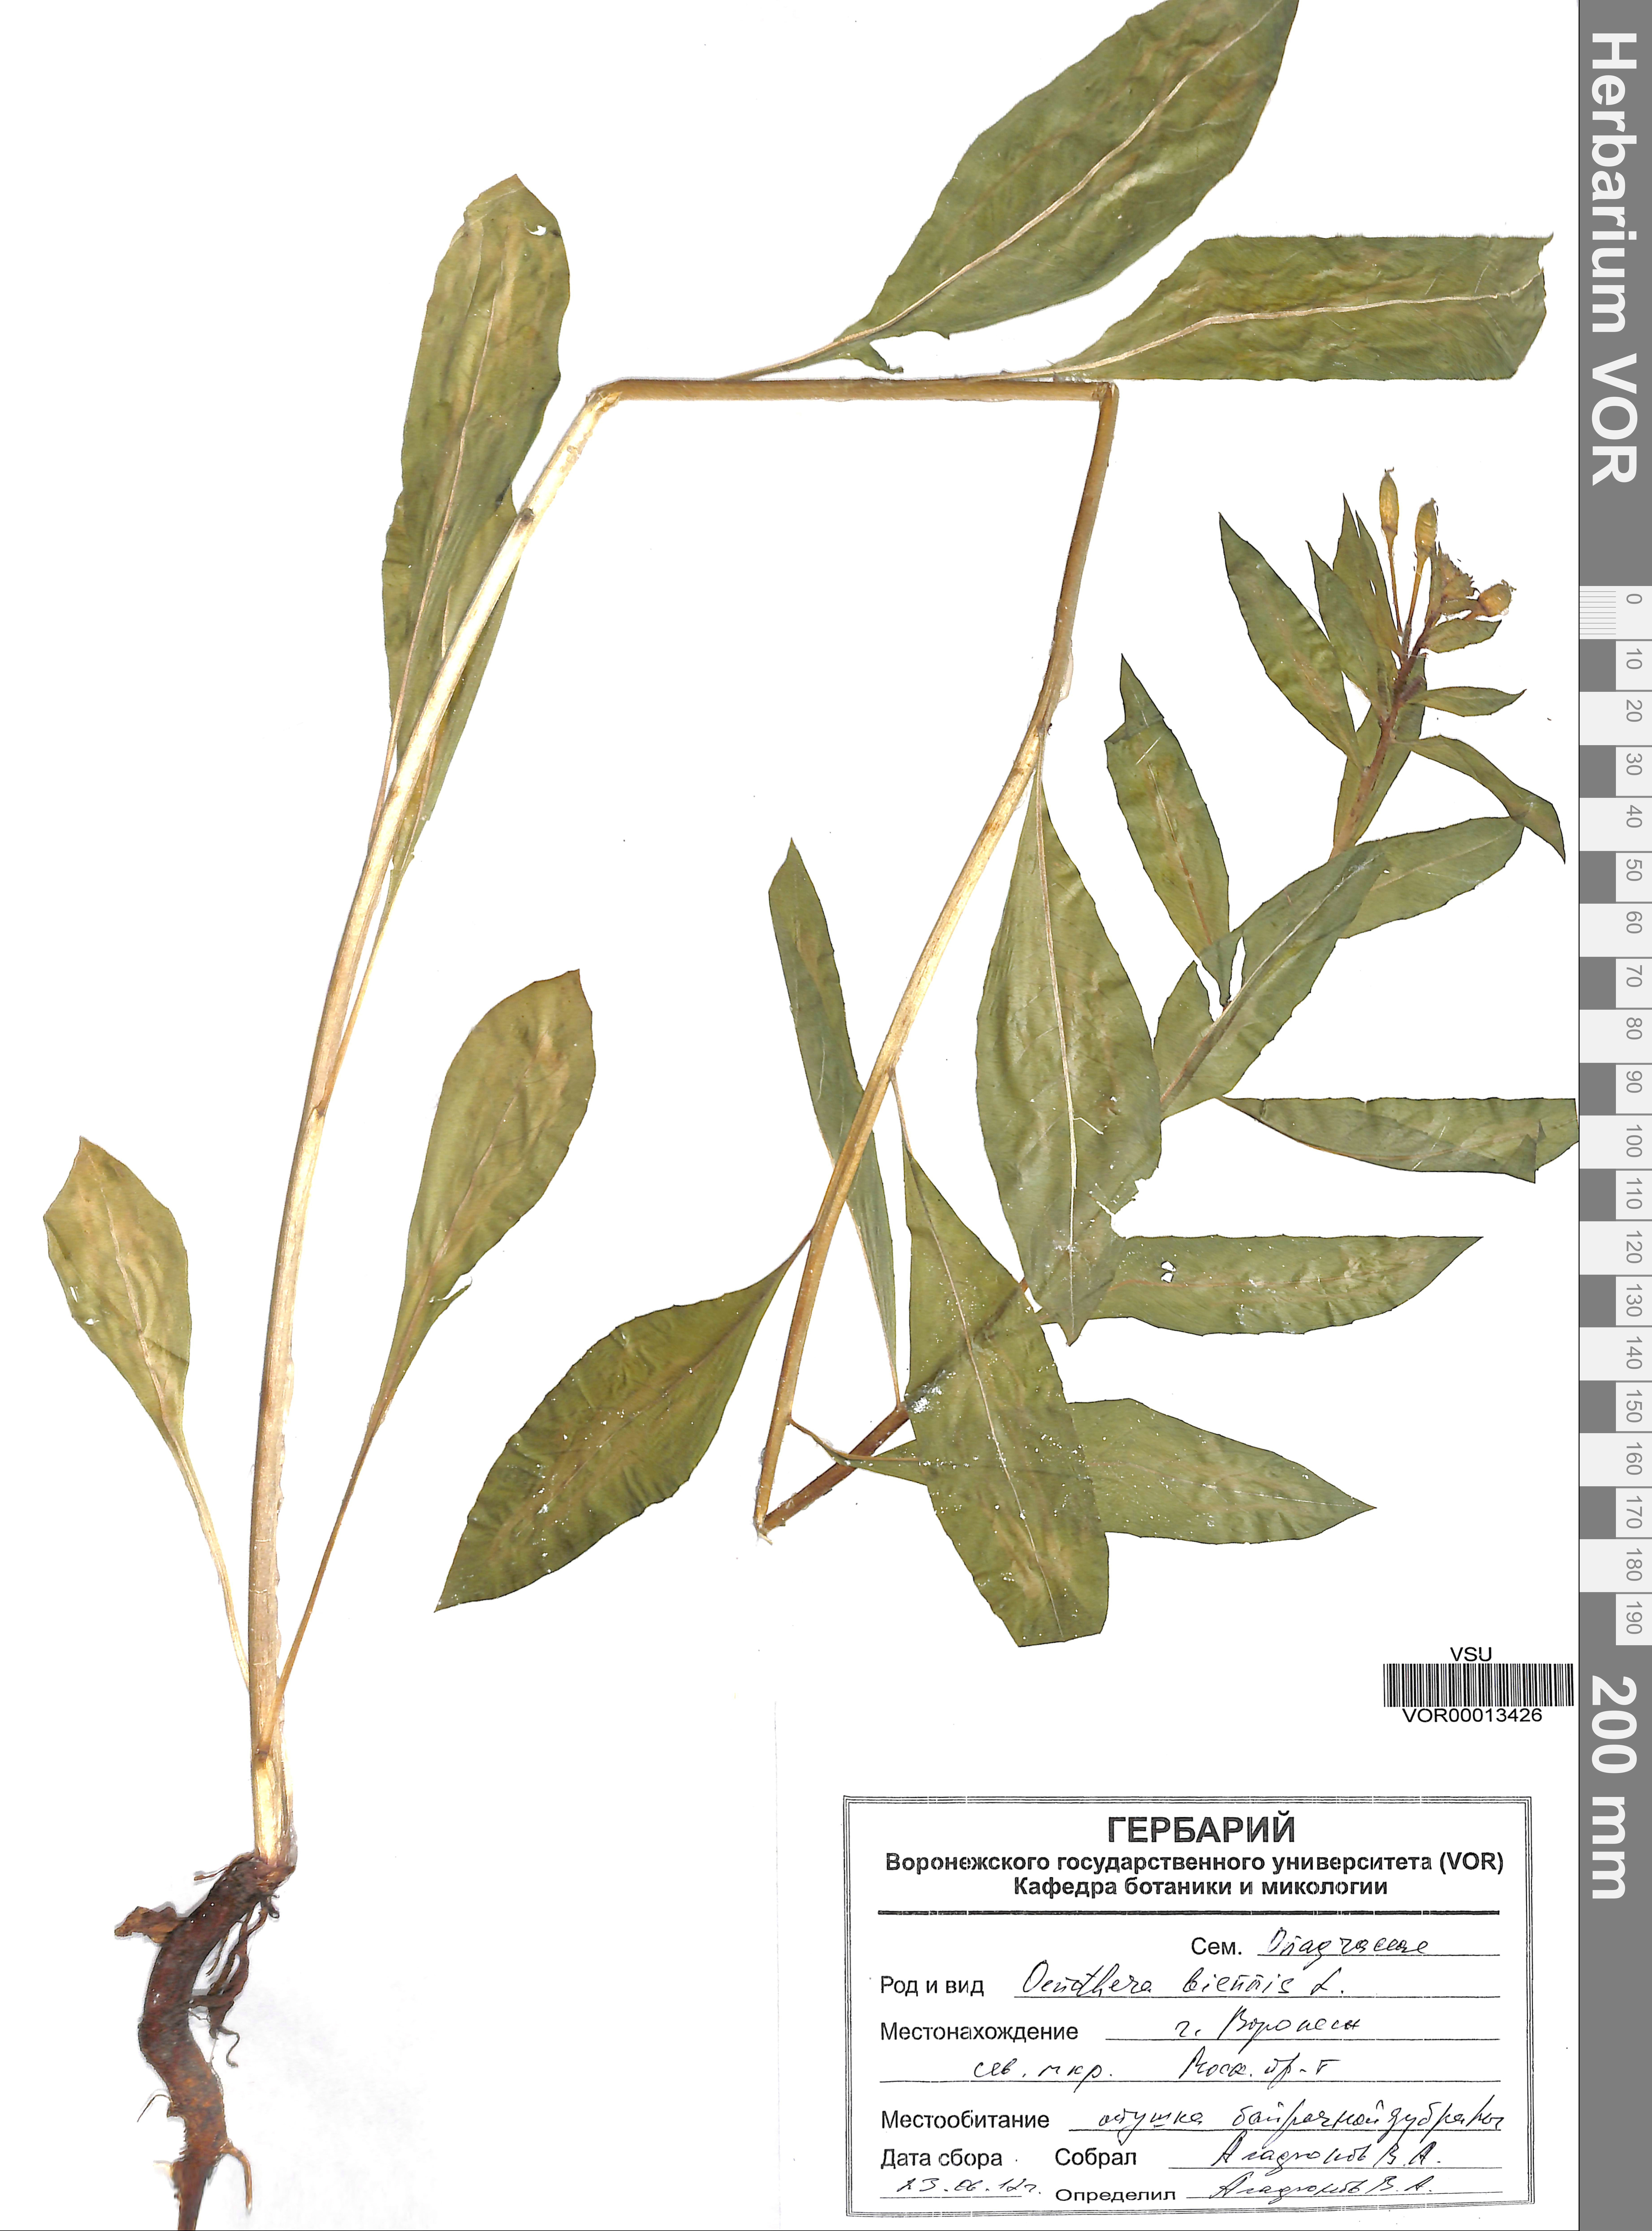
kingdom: Plantae
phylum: Tracheophyta
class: Magnoliopsida
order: Myrtales
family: Onagraceae
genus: Oenothera
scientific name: Oenothera biennis
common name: Common evening-primrose
